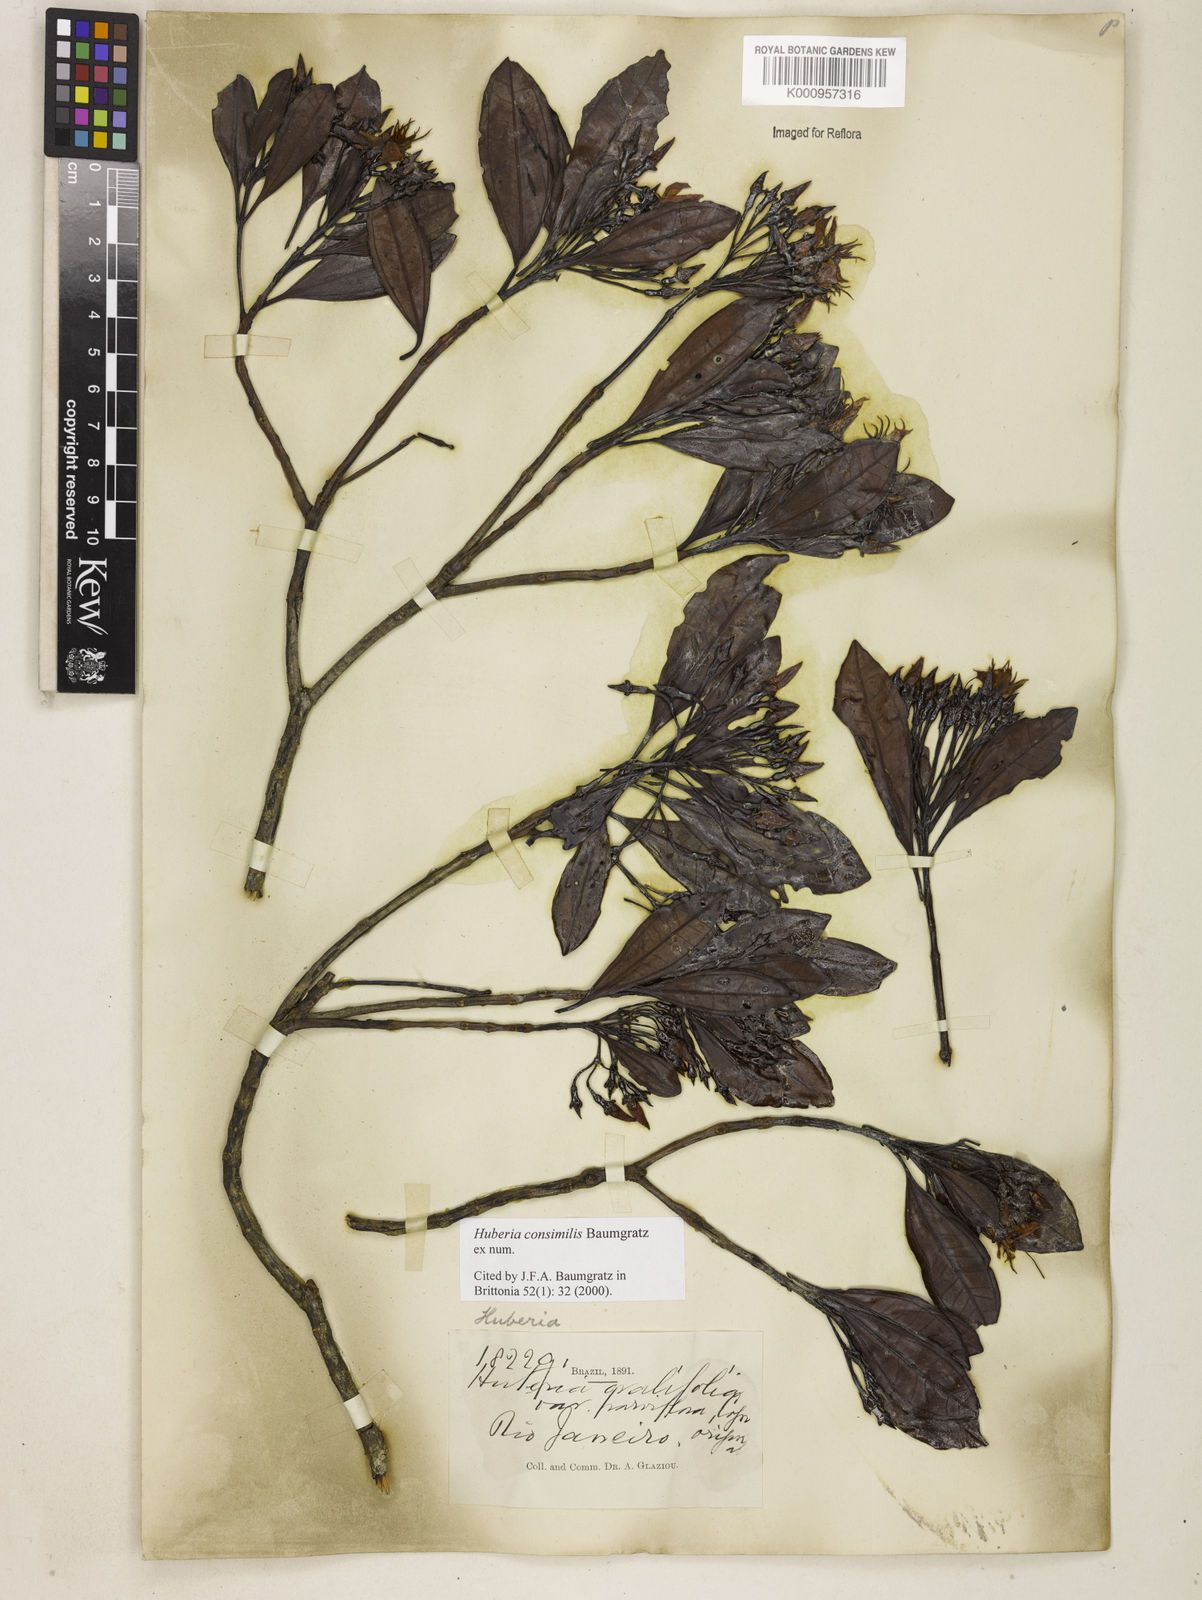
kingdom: Plantae
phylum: Tracheophyta
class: Magnoliopsida
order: Myrtales
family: Melastomataceae
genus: Huberia
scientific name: Huberia consimilis
